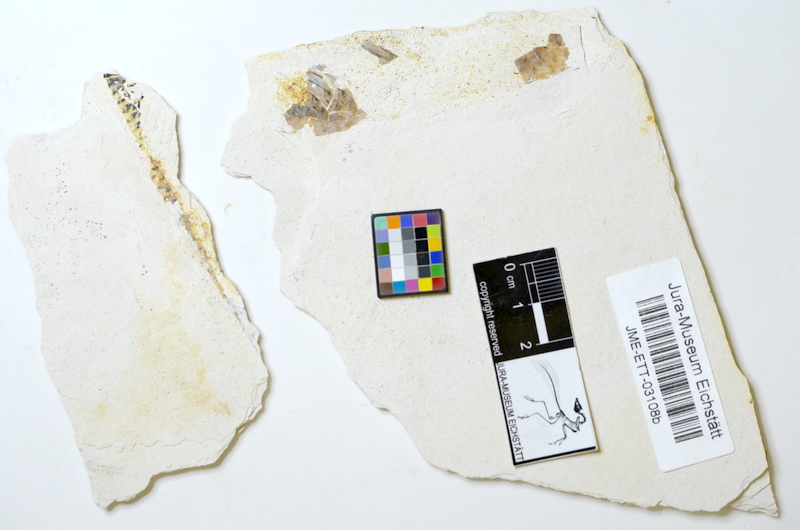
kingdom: Animalia
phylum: Chordata
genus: Thrissops
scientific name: Thrissops formosus
